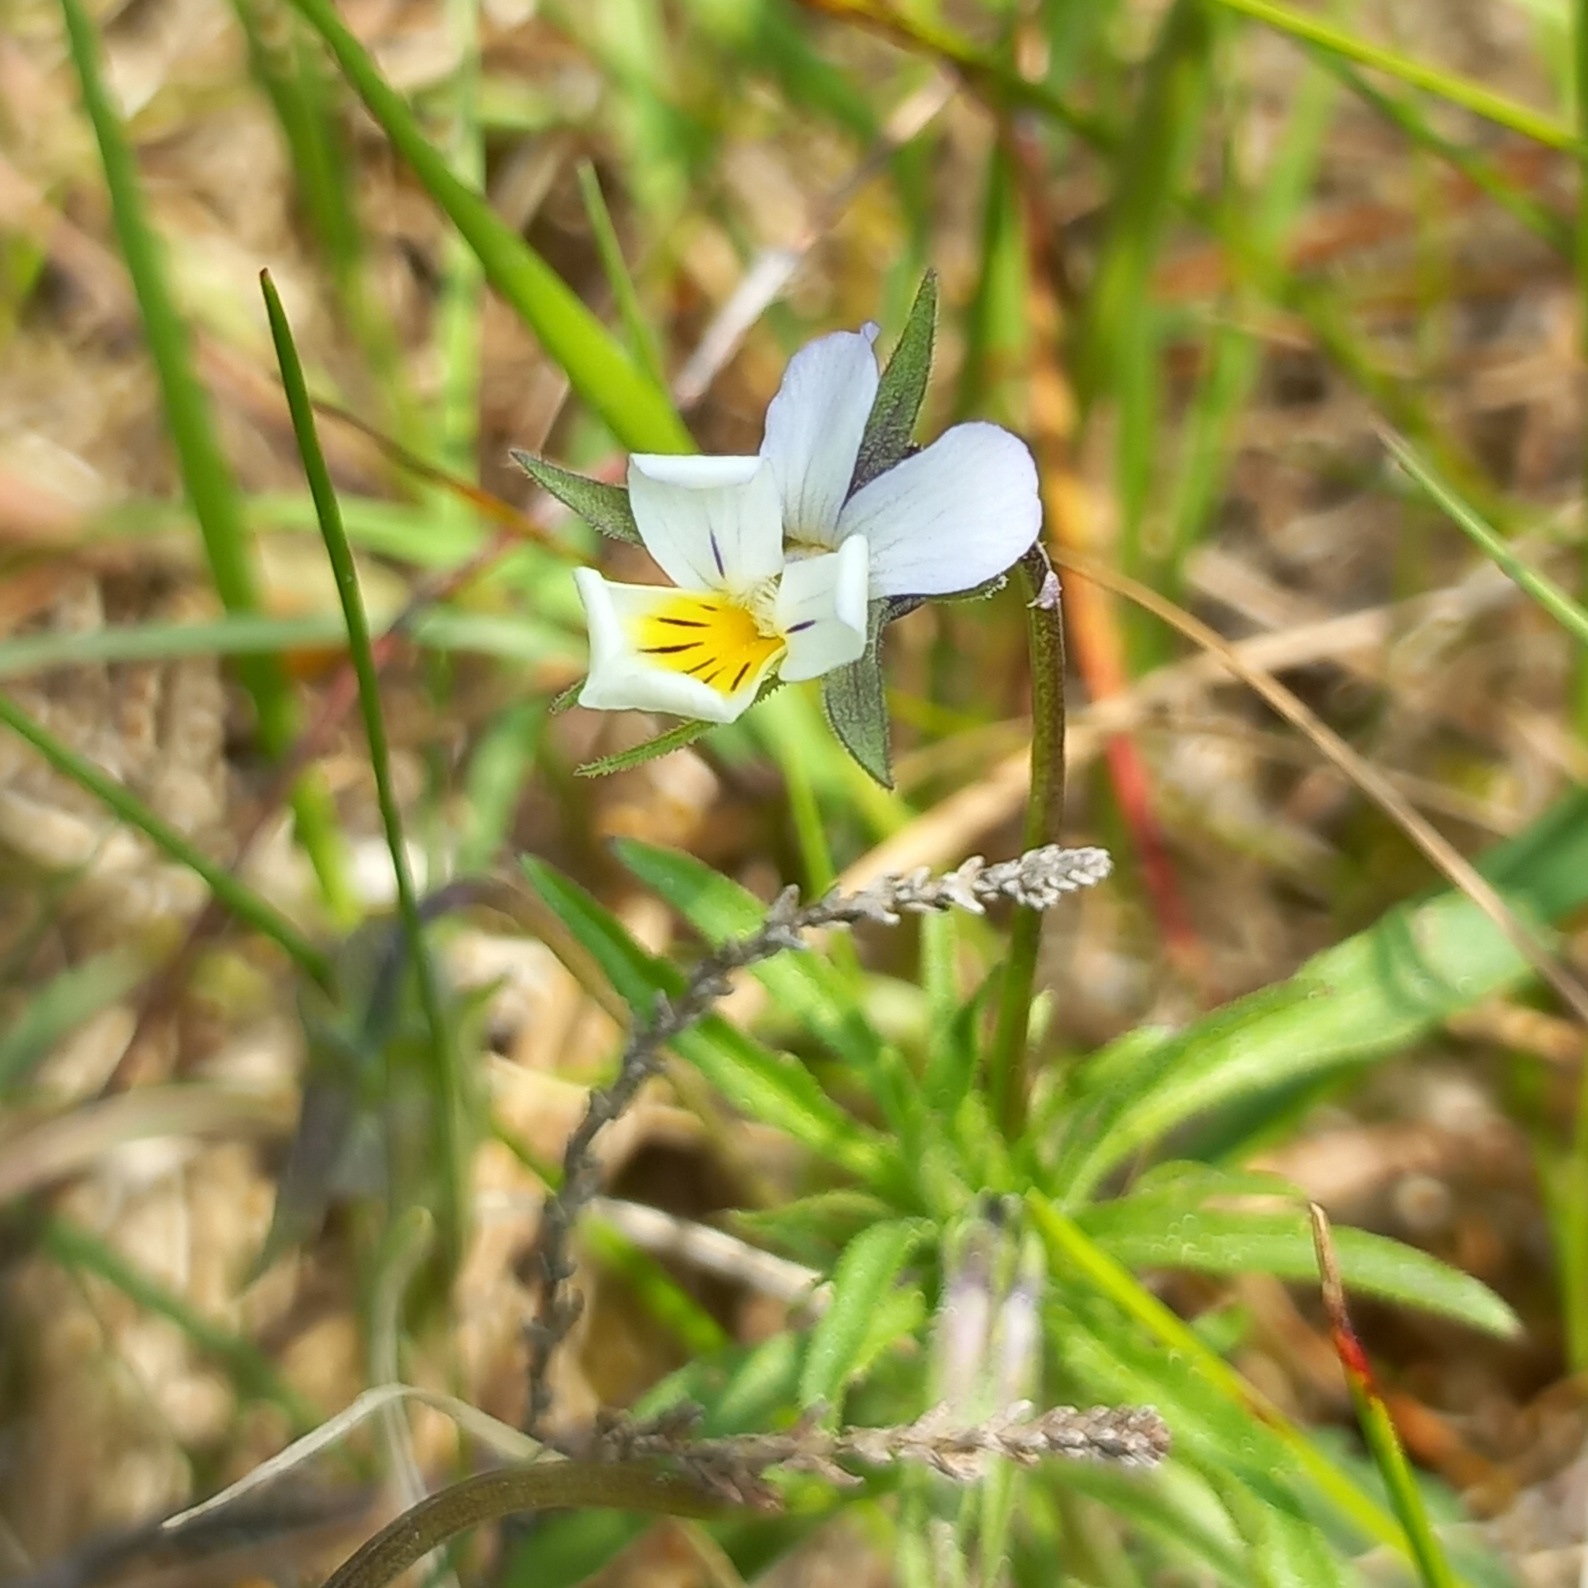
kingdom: Plantae
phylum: Tracheophyta
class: Magnoliopsida
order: Malpighiales
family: Violaceae
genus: Viola
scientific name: Viola arvensis
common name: Ager-stedmoderblomst
